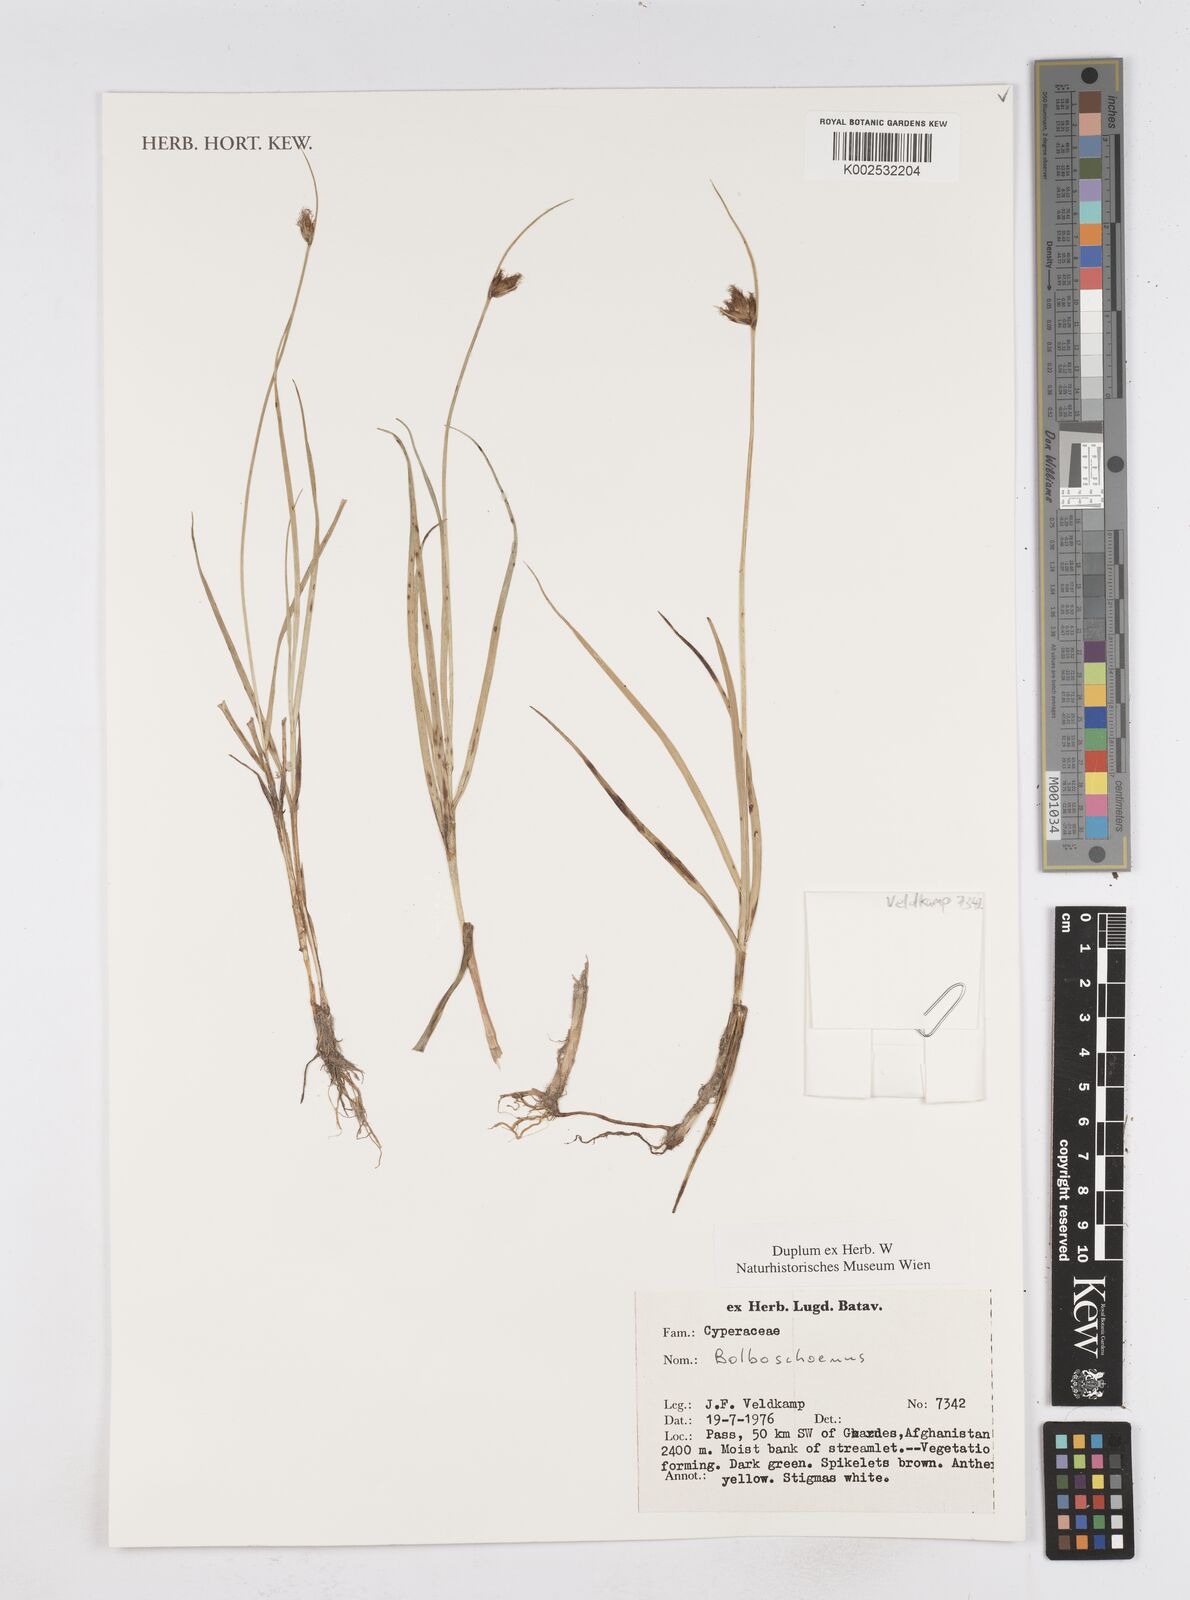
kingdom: Plantae
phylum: Tracheophyta
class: Liliopsida
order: Poales
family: Cyperaceae
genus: Bolboschoenus
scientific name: Bolboschoenus maritimus
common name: Sea club-rush
